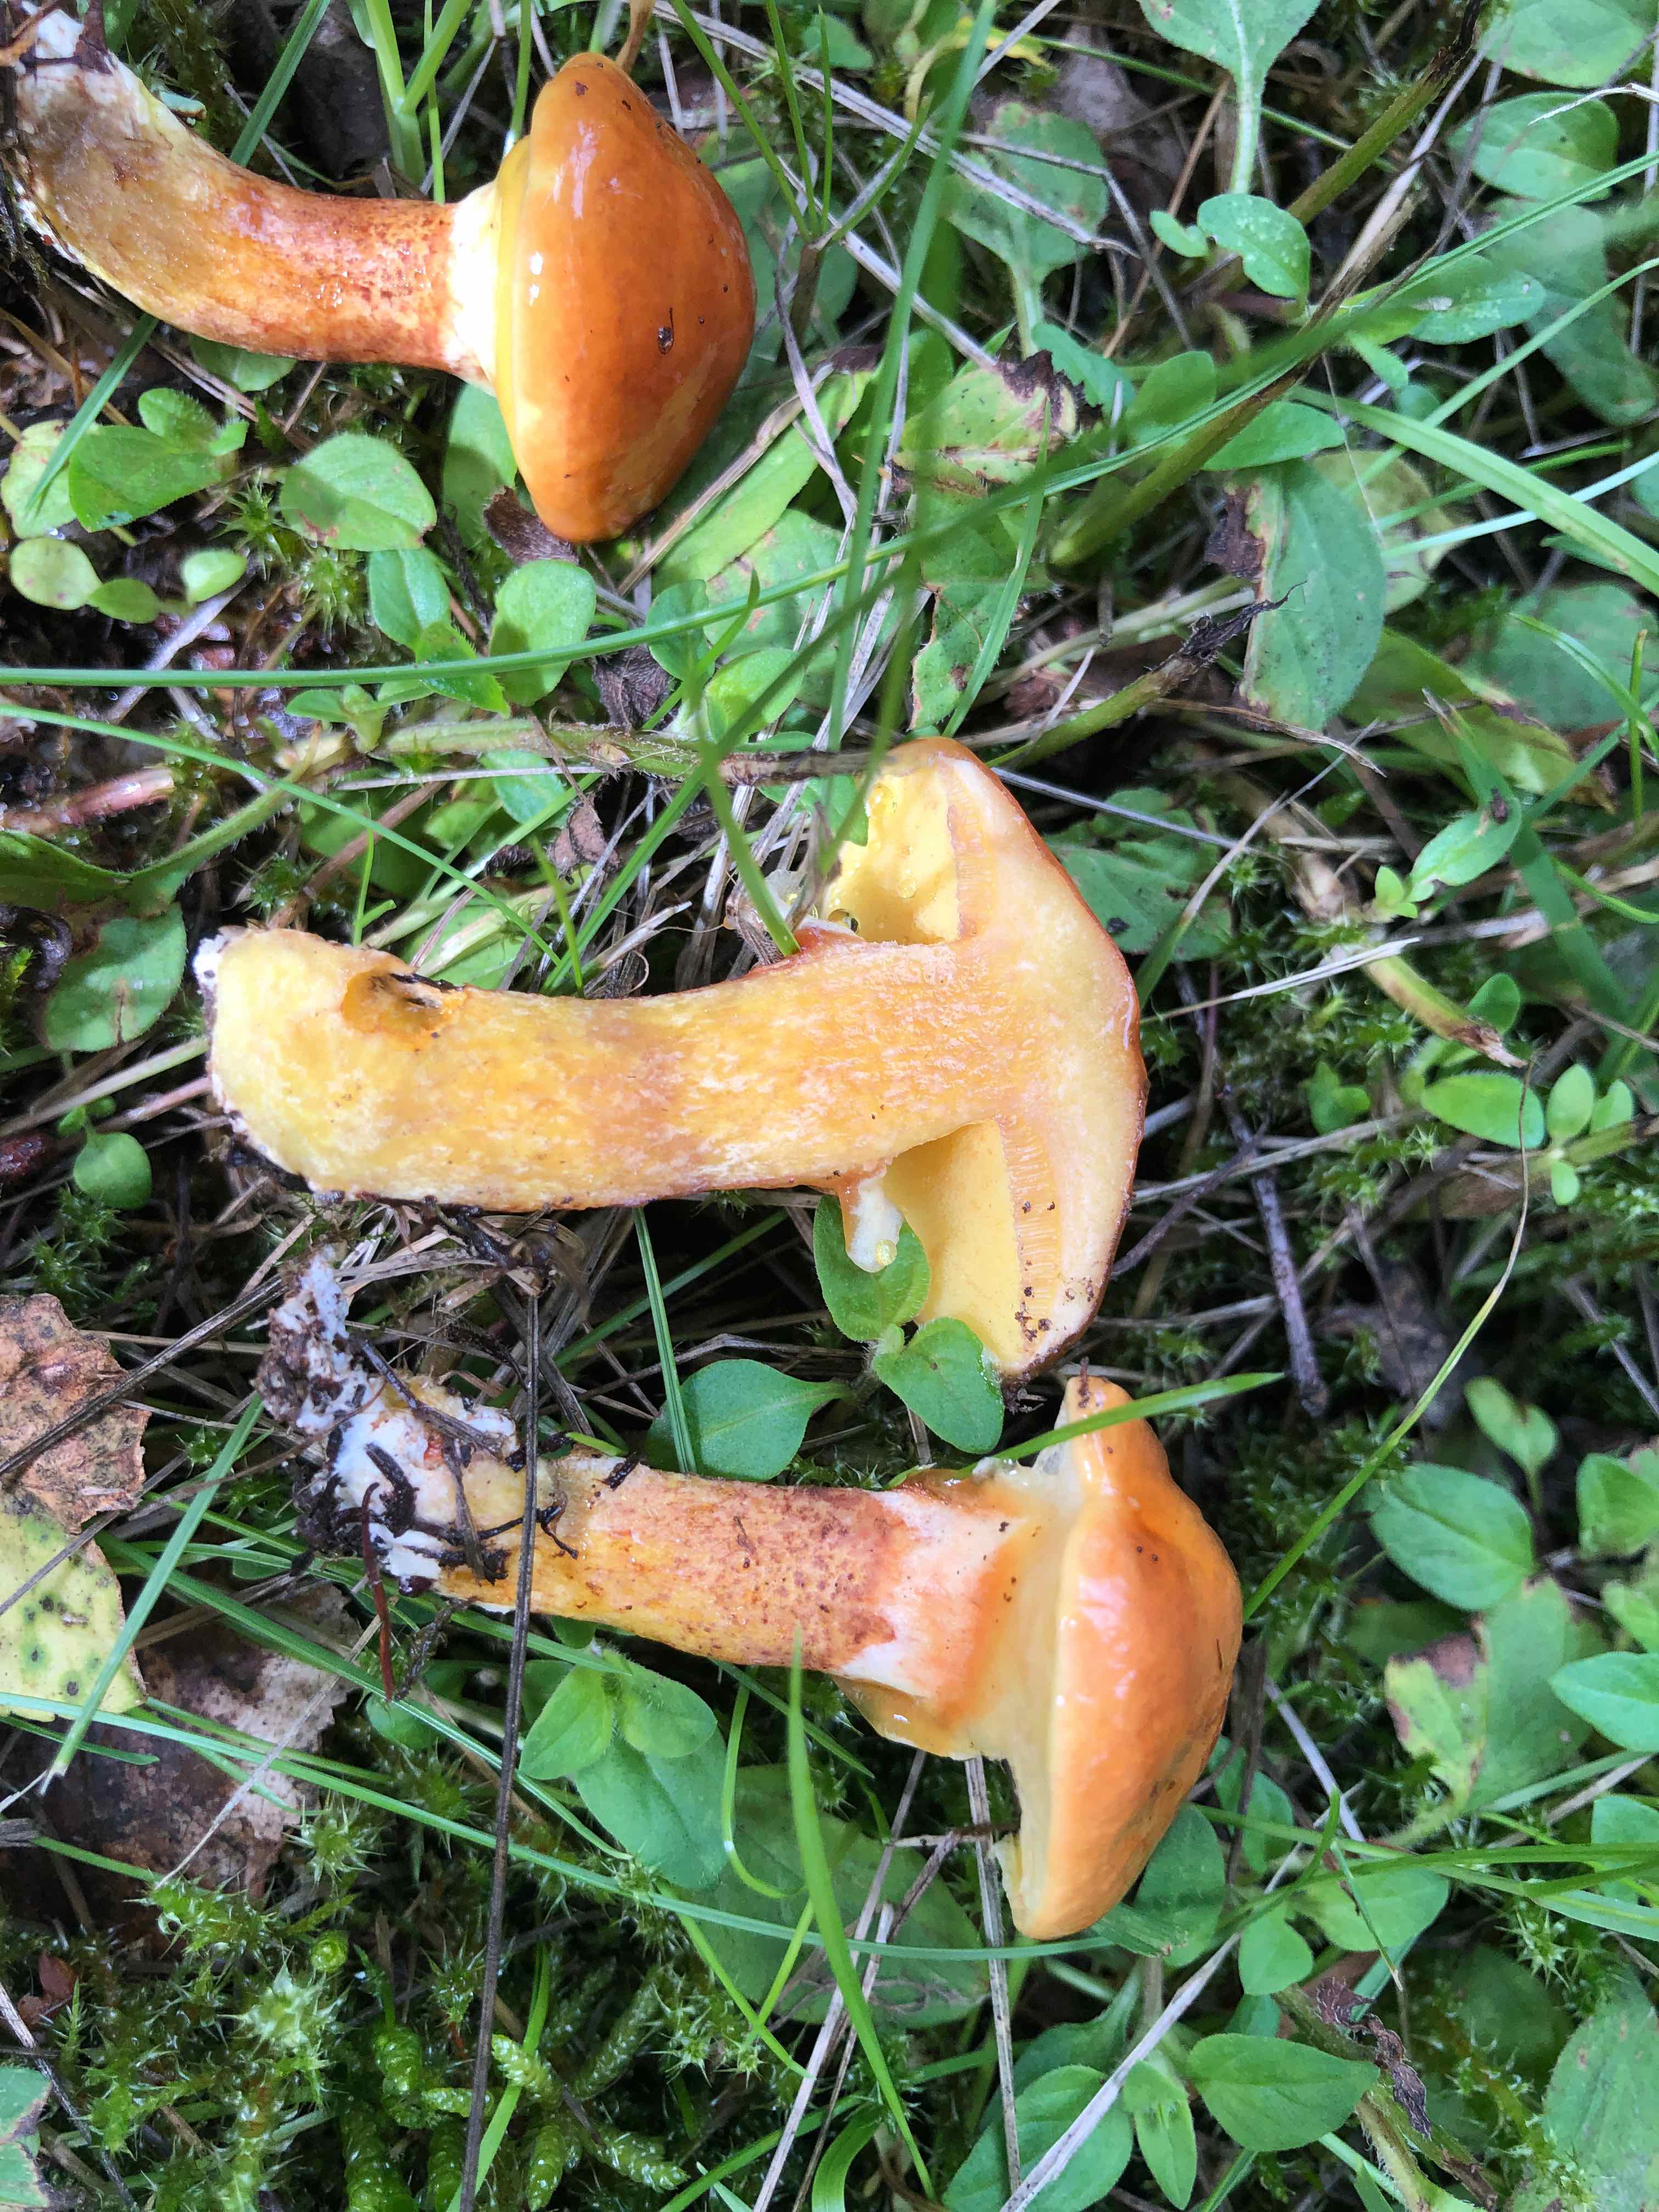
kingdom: Fungi
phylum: Basidiomycota
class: Agaricomycetes
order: Boletales
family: Suillaceae
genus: Suillus
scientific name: Suillus grevillei
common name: lærke-slimrørhat
